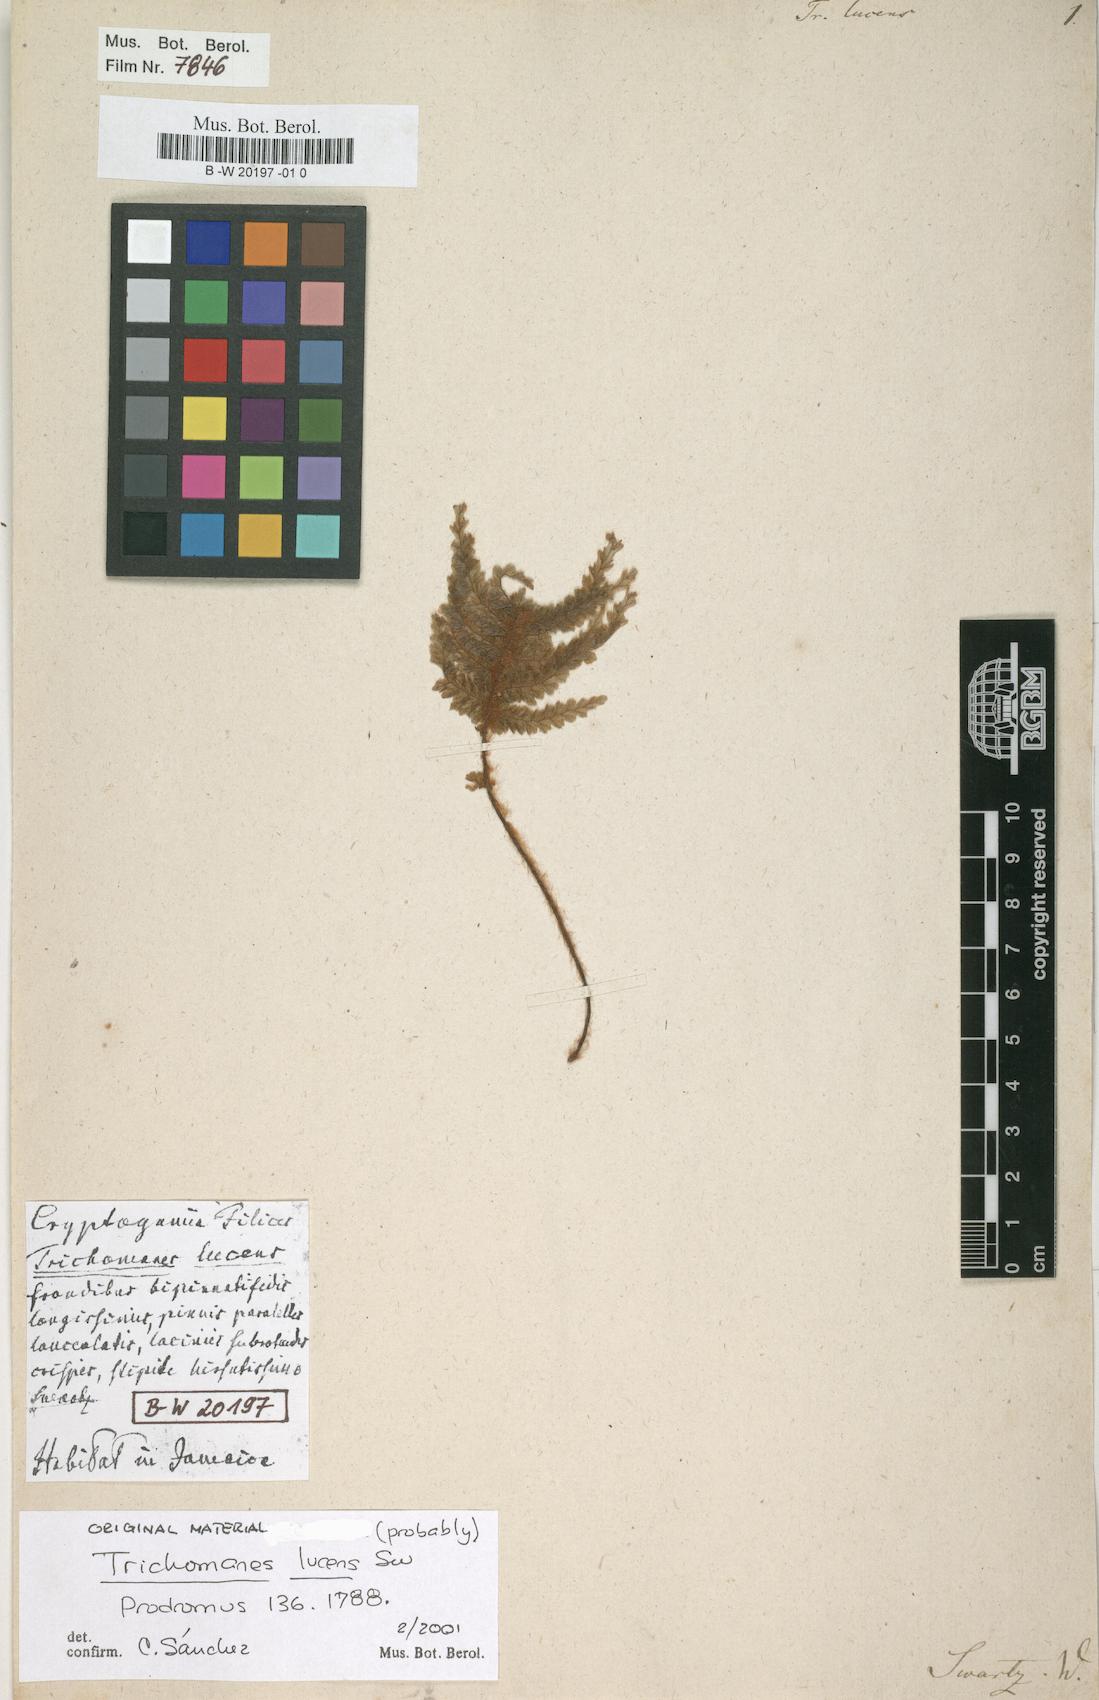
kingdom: Plantae
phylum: Tracheophyta
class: Polypodiopsida
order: Hymenophyllales
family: Hymenophyllaceae
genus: Trichomanes
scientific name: Trichomanes lucens
